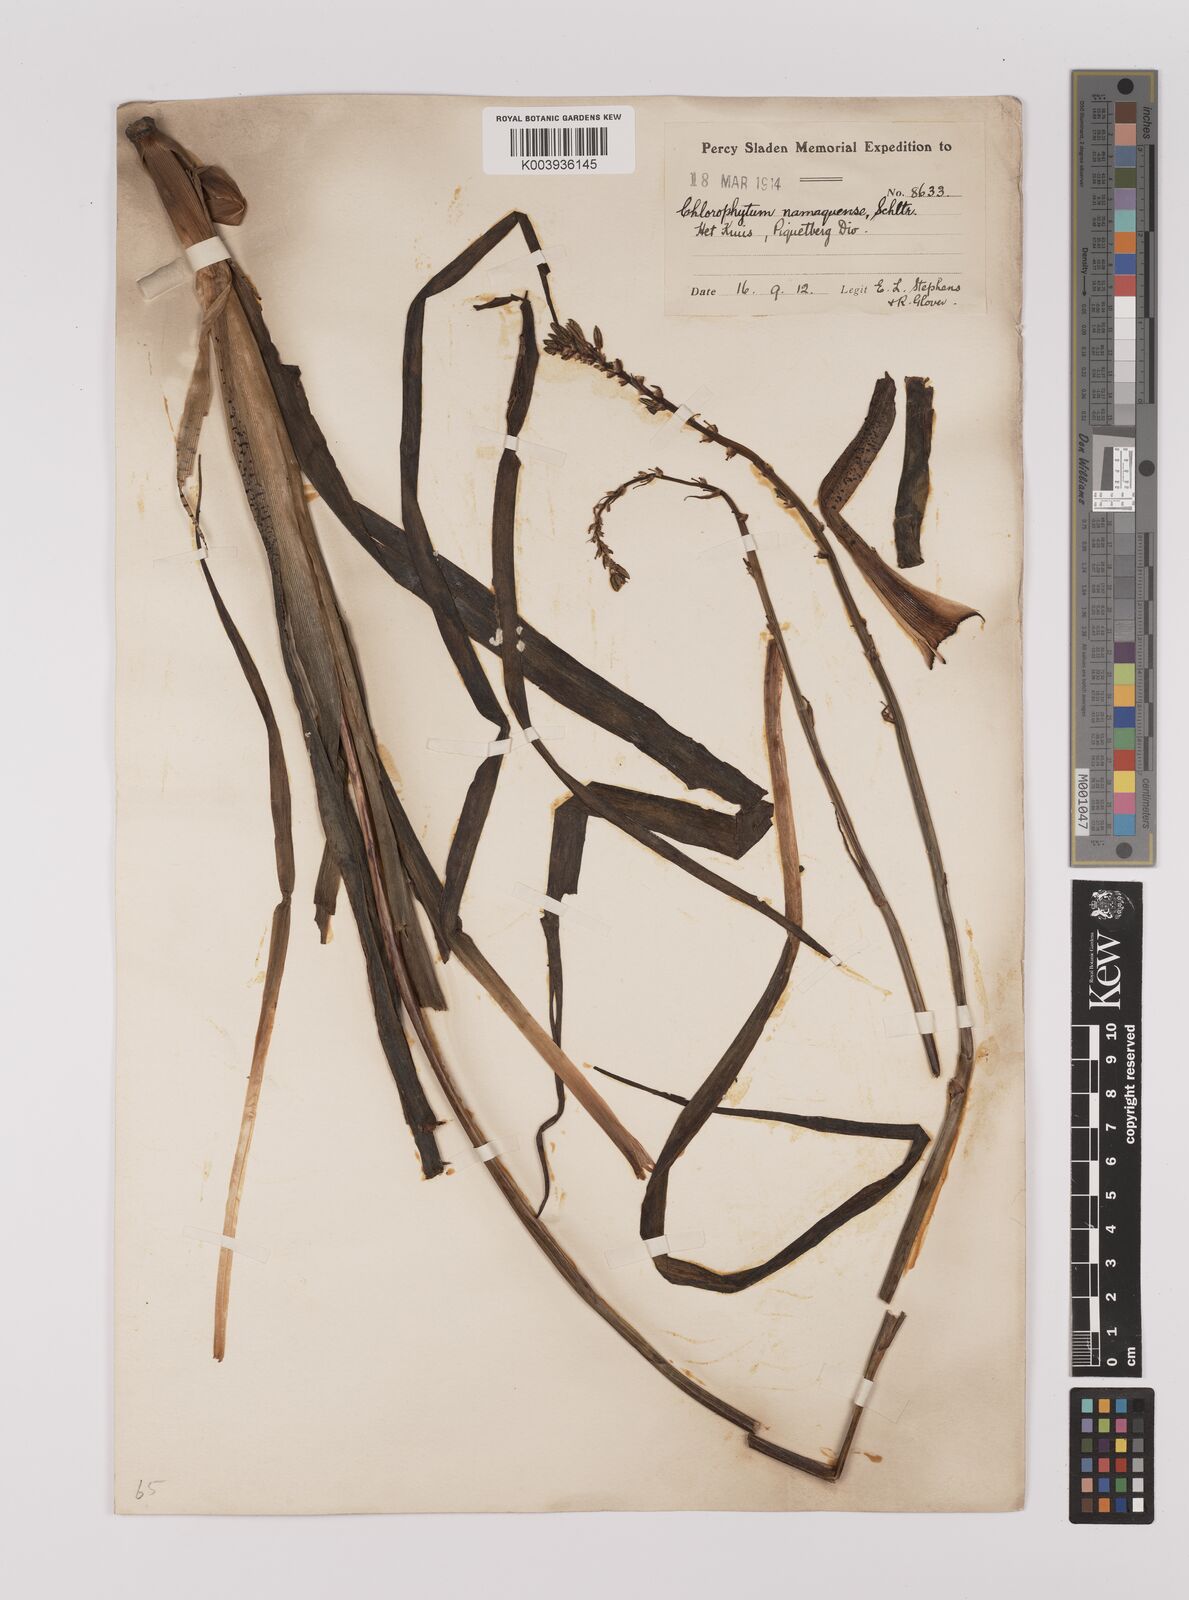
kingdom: Plantae
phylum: Tracheophyta
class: Liliopsida
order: Asparagales
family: Asparagaceae
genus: Chlorophytum
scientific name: Chlorophytum
